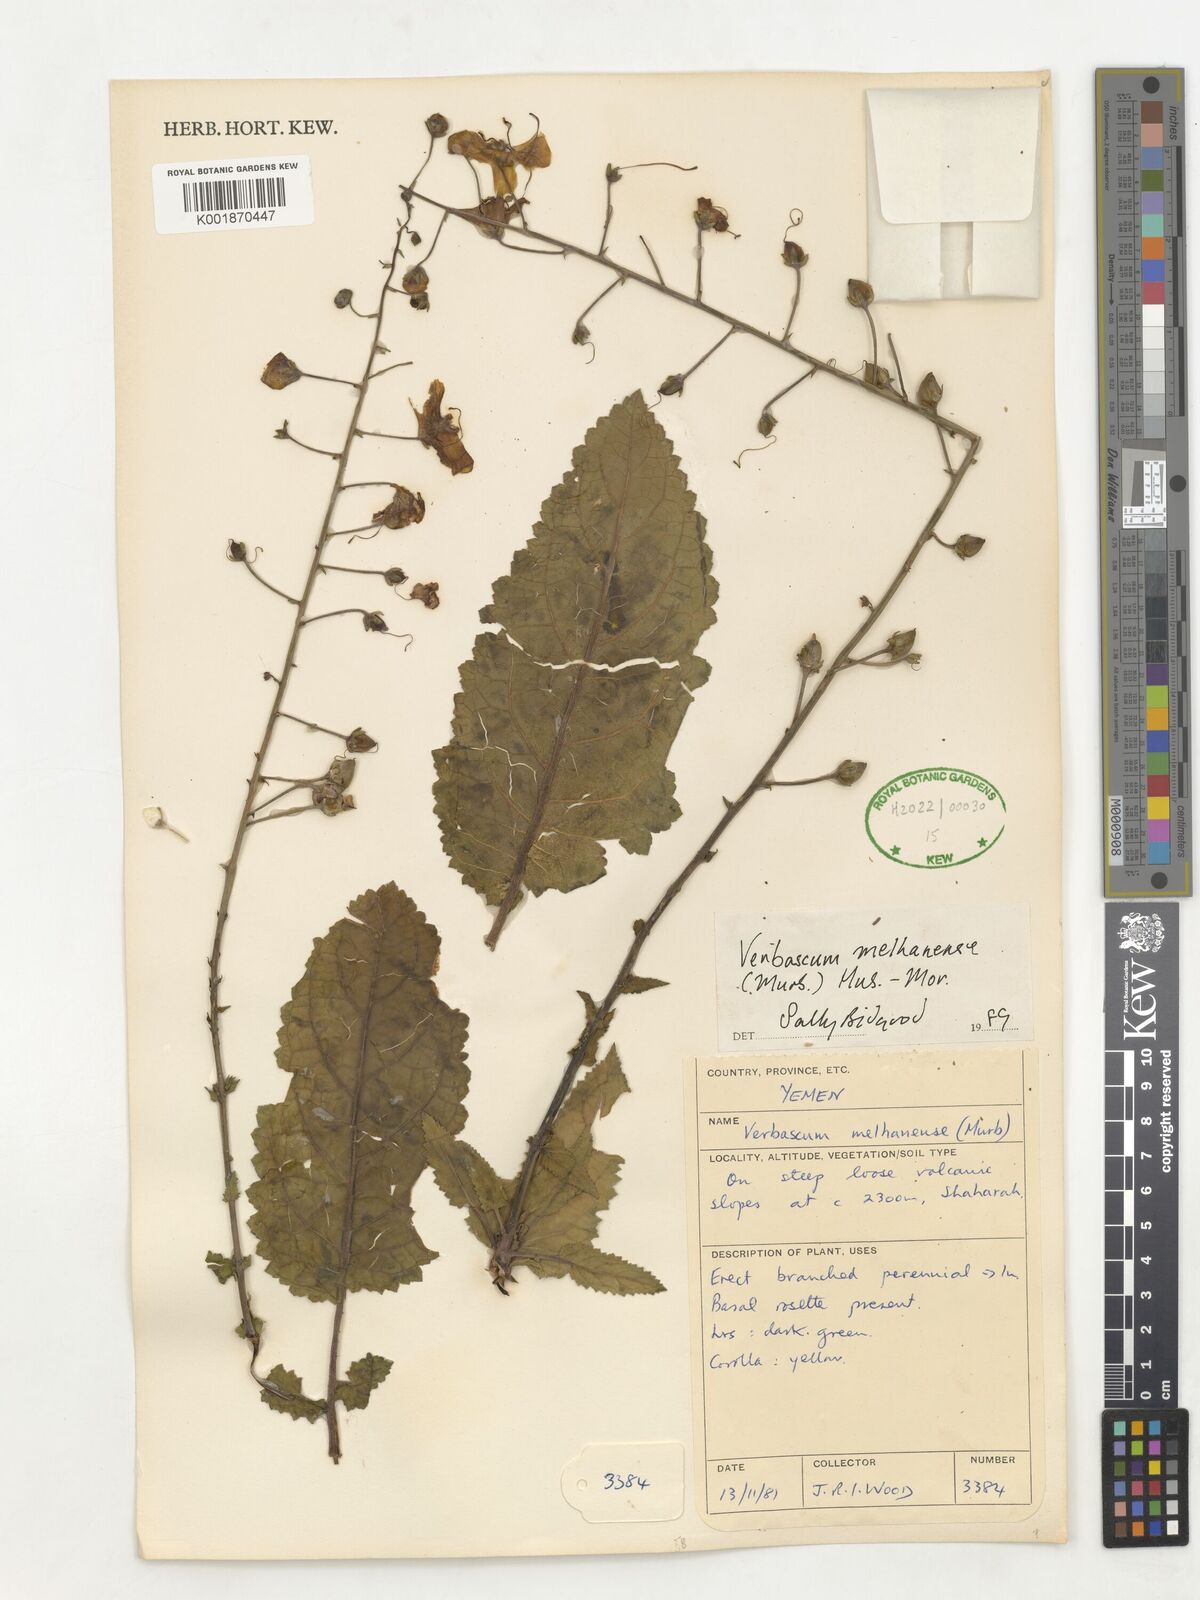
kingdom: Plantae
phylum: Tracheophyta
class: Magnoliopsida
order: Lamiales
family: Scrophulariaceae
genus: Verbascum
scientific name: Verbascum melhanense
